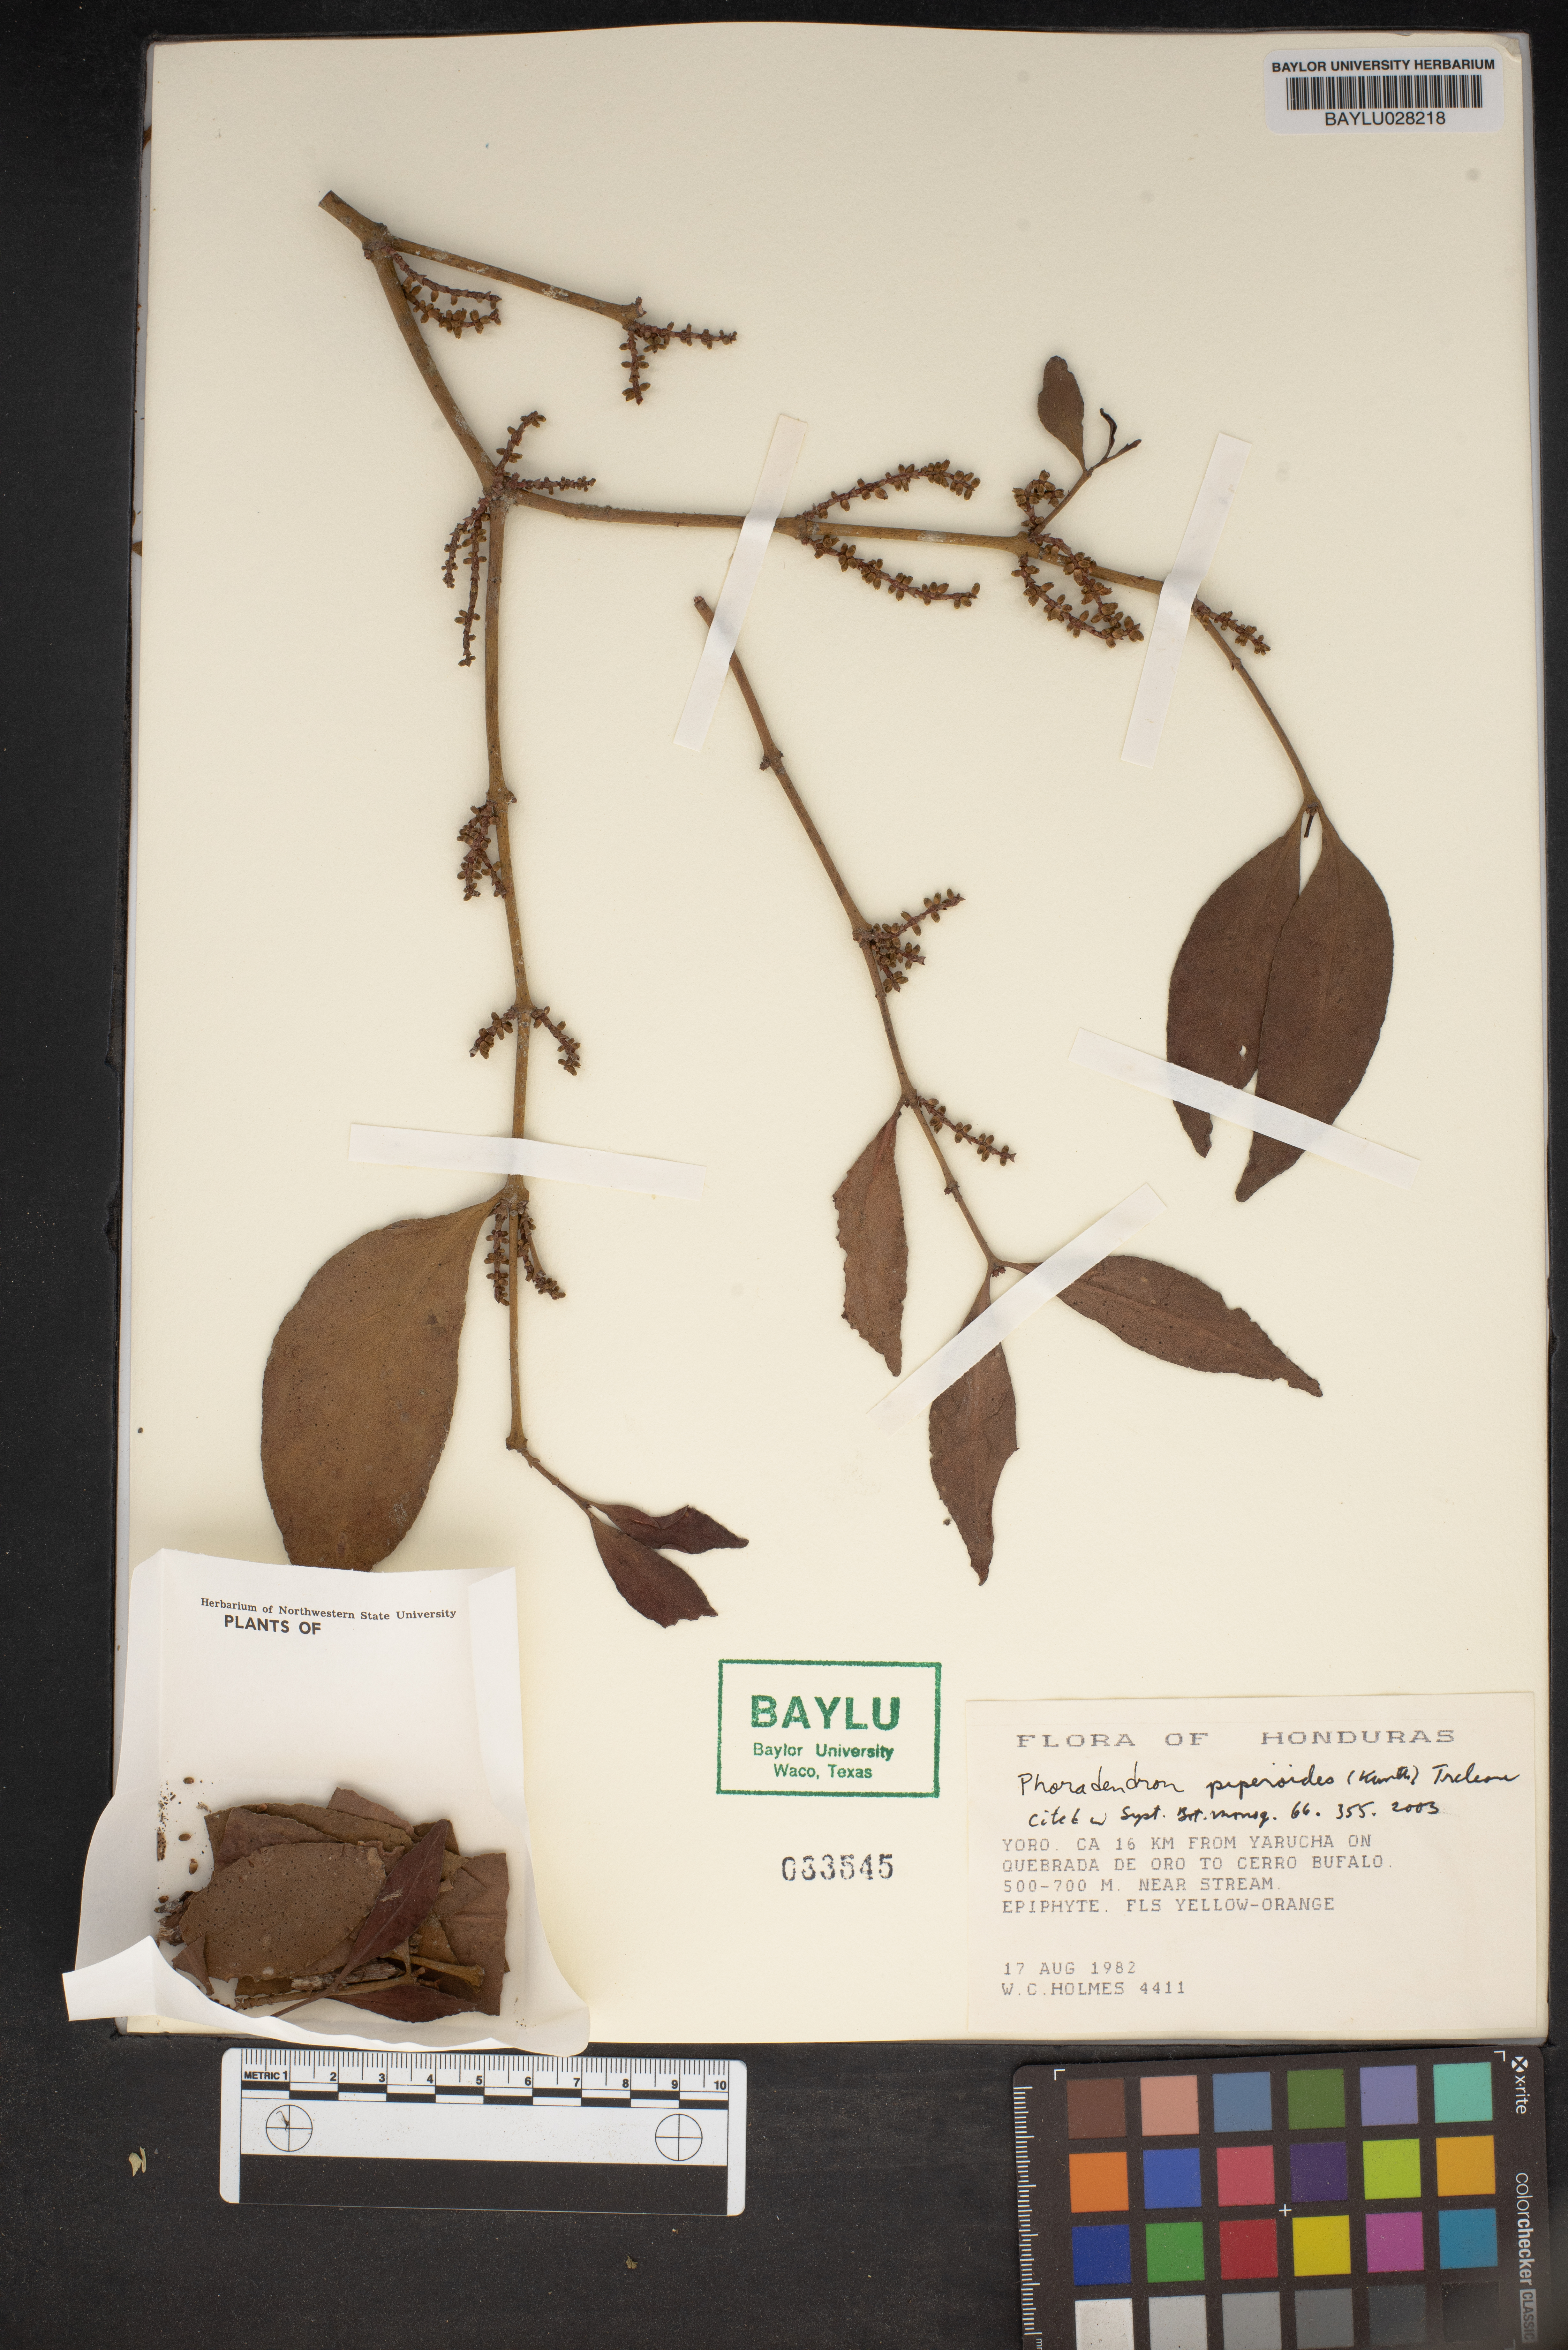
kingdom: Plantae
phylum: Tracheophyta
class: Magnoliopsida
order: Santalales
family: Viscaceae
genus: Phoradendron
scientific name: Phoradendron piperoides
